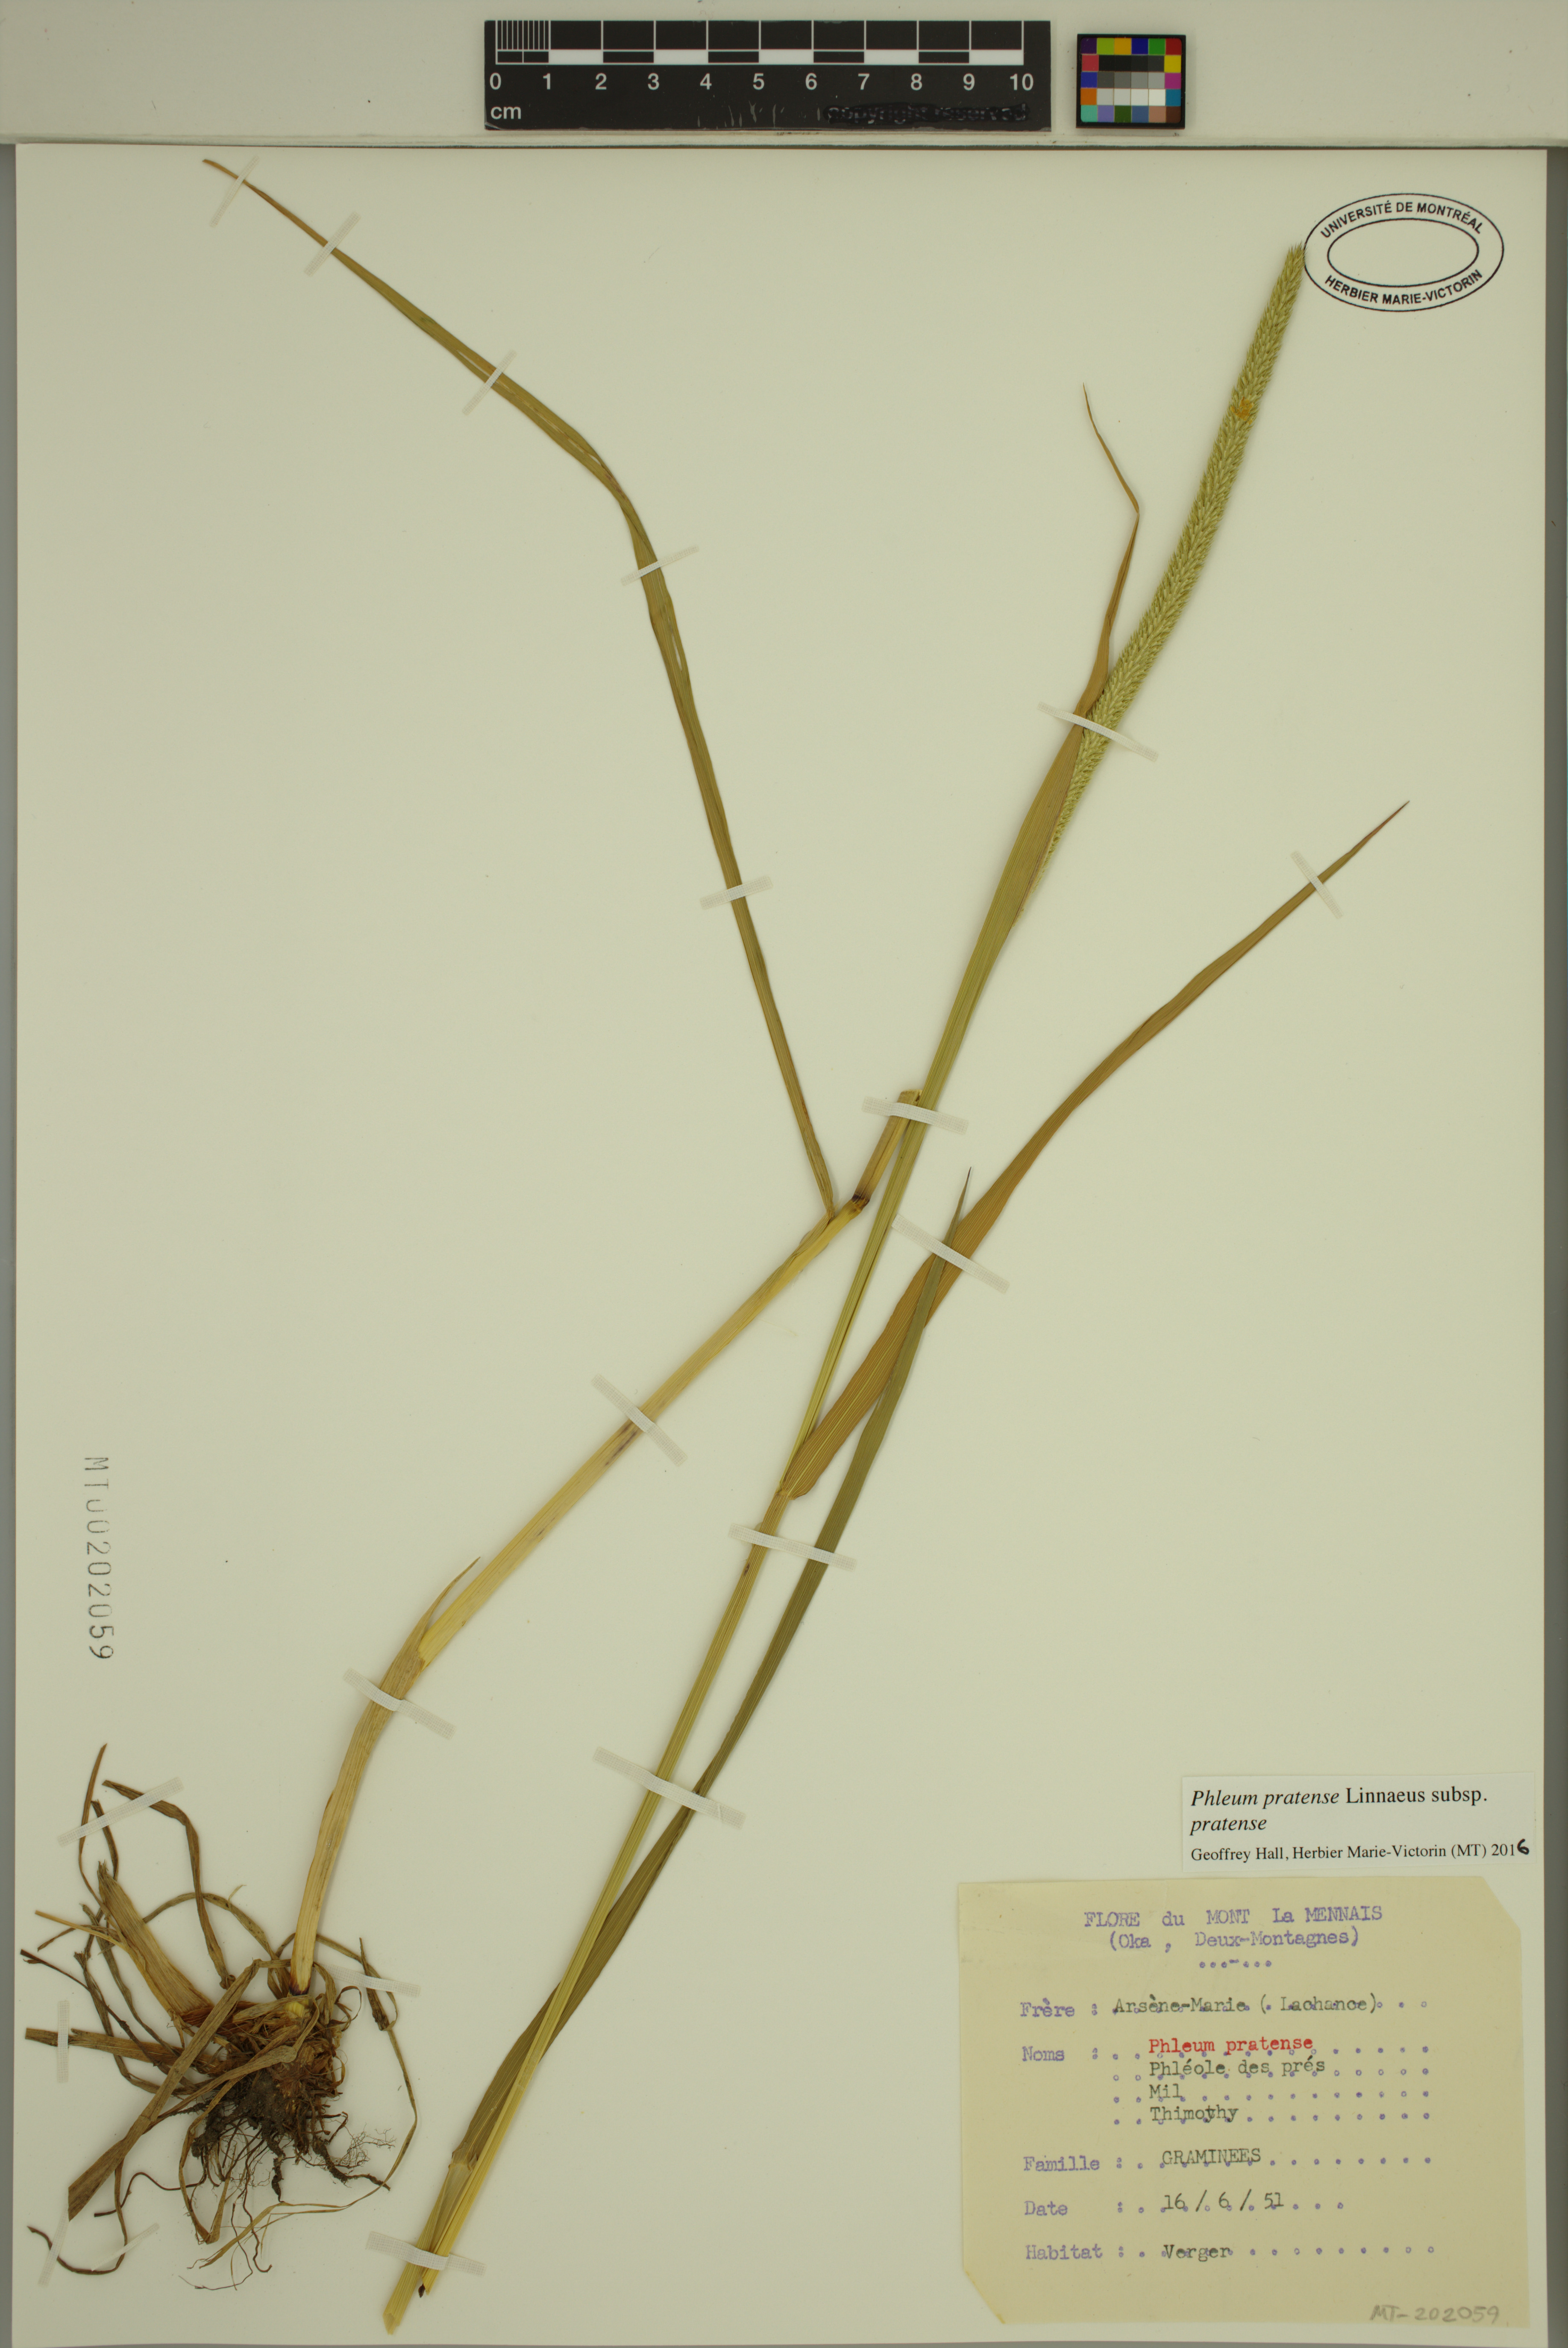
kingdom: Plantae
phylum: Tracheophyta
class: Liliopsida
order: Poales
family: Poaceae
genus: Phleum
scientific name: Phleum pratense
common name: Timothy grass
